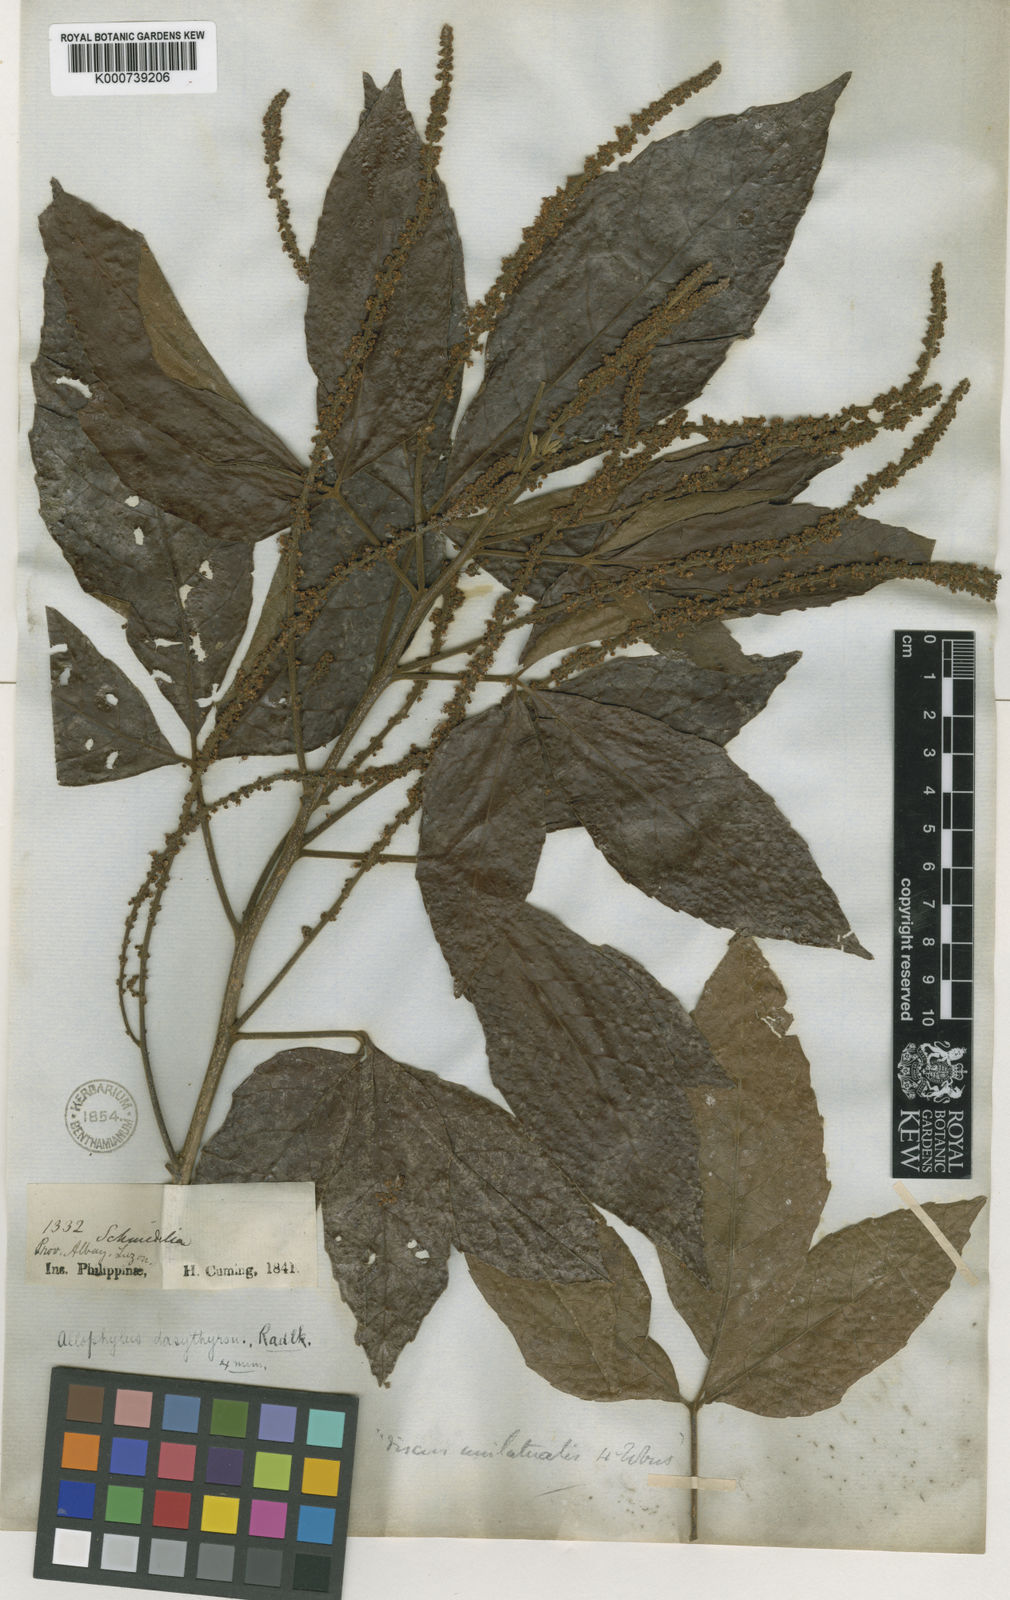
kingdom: Plantae
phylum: Tracheophyta
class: Magnoliopsida
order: Sapindales
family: Sapindaceae
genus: Allophylus
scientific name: Allophylus dasythyrsus
